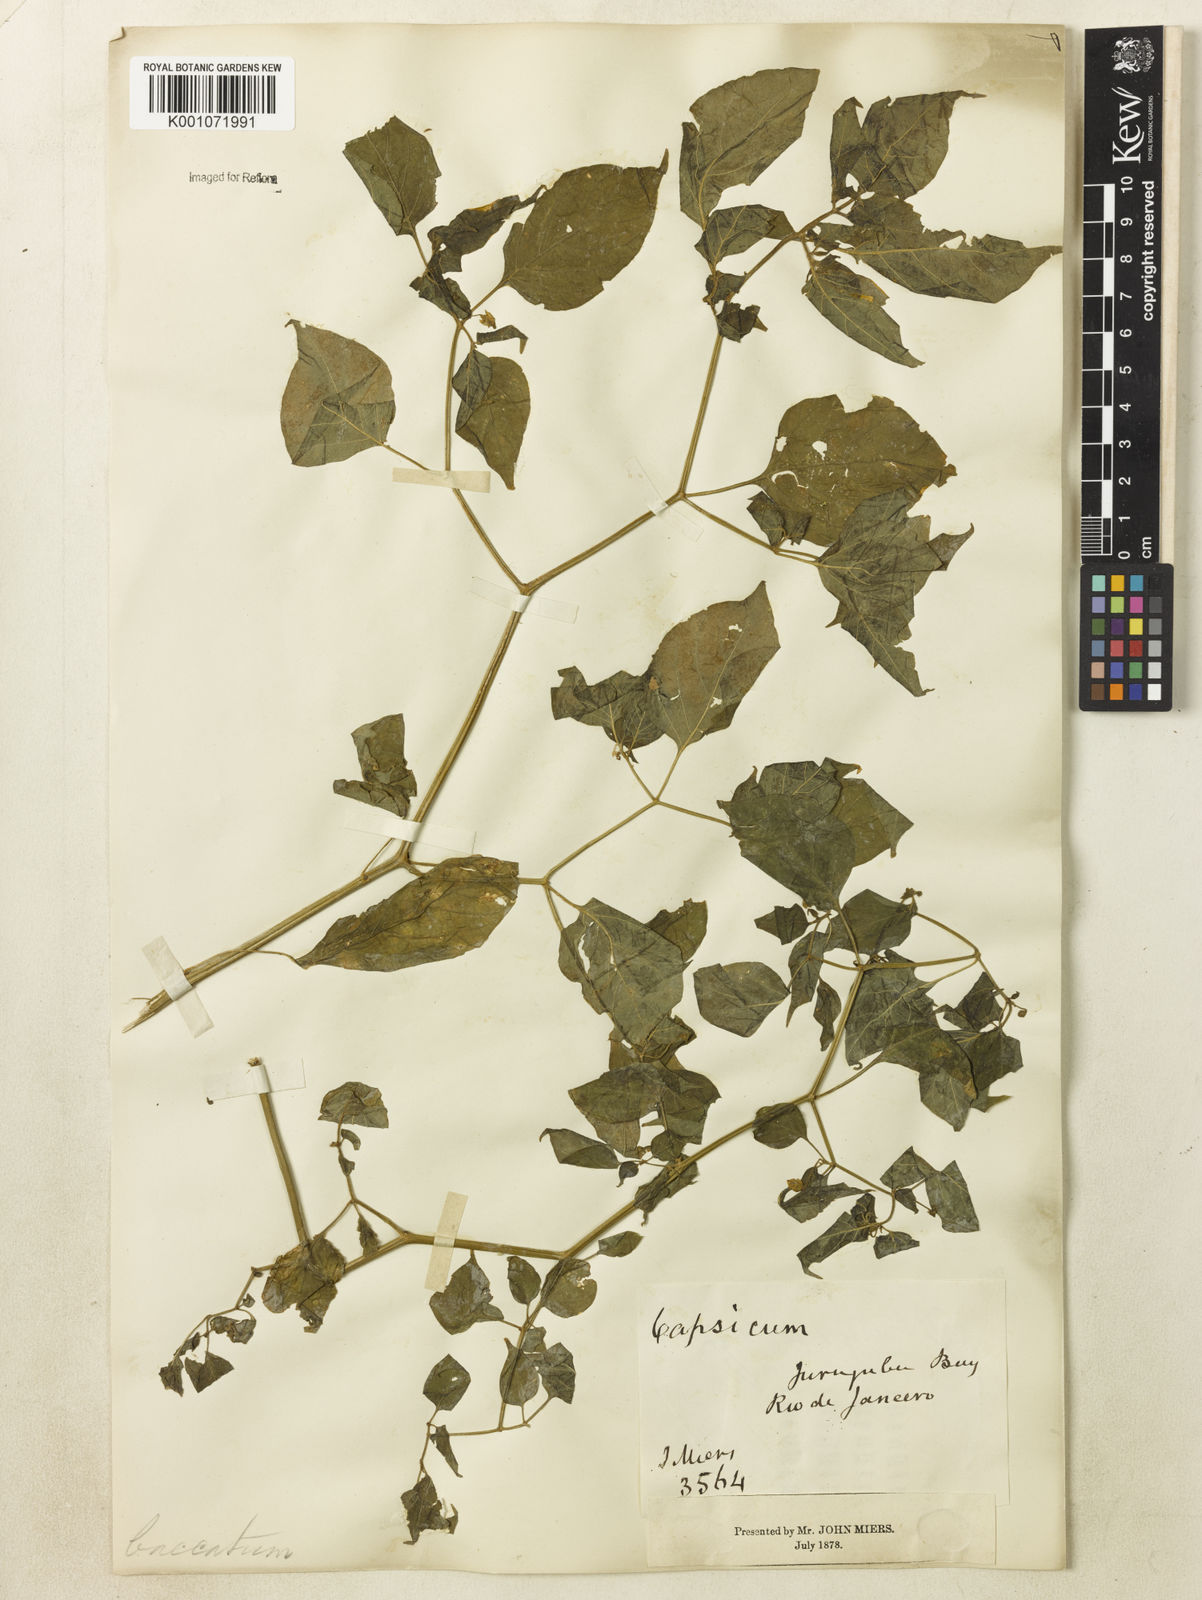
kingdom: Plantae
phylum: Tracheophyta
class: Magnoliopsida
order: Solanales
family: Solanaceae
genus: Capsicum
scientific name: Capsicum baccatum
